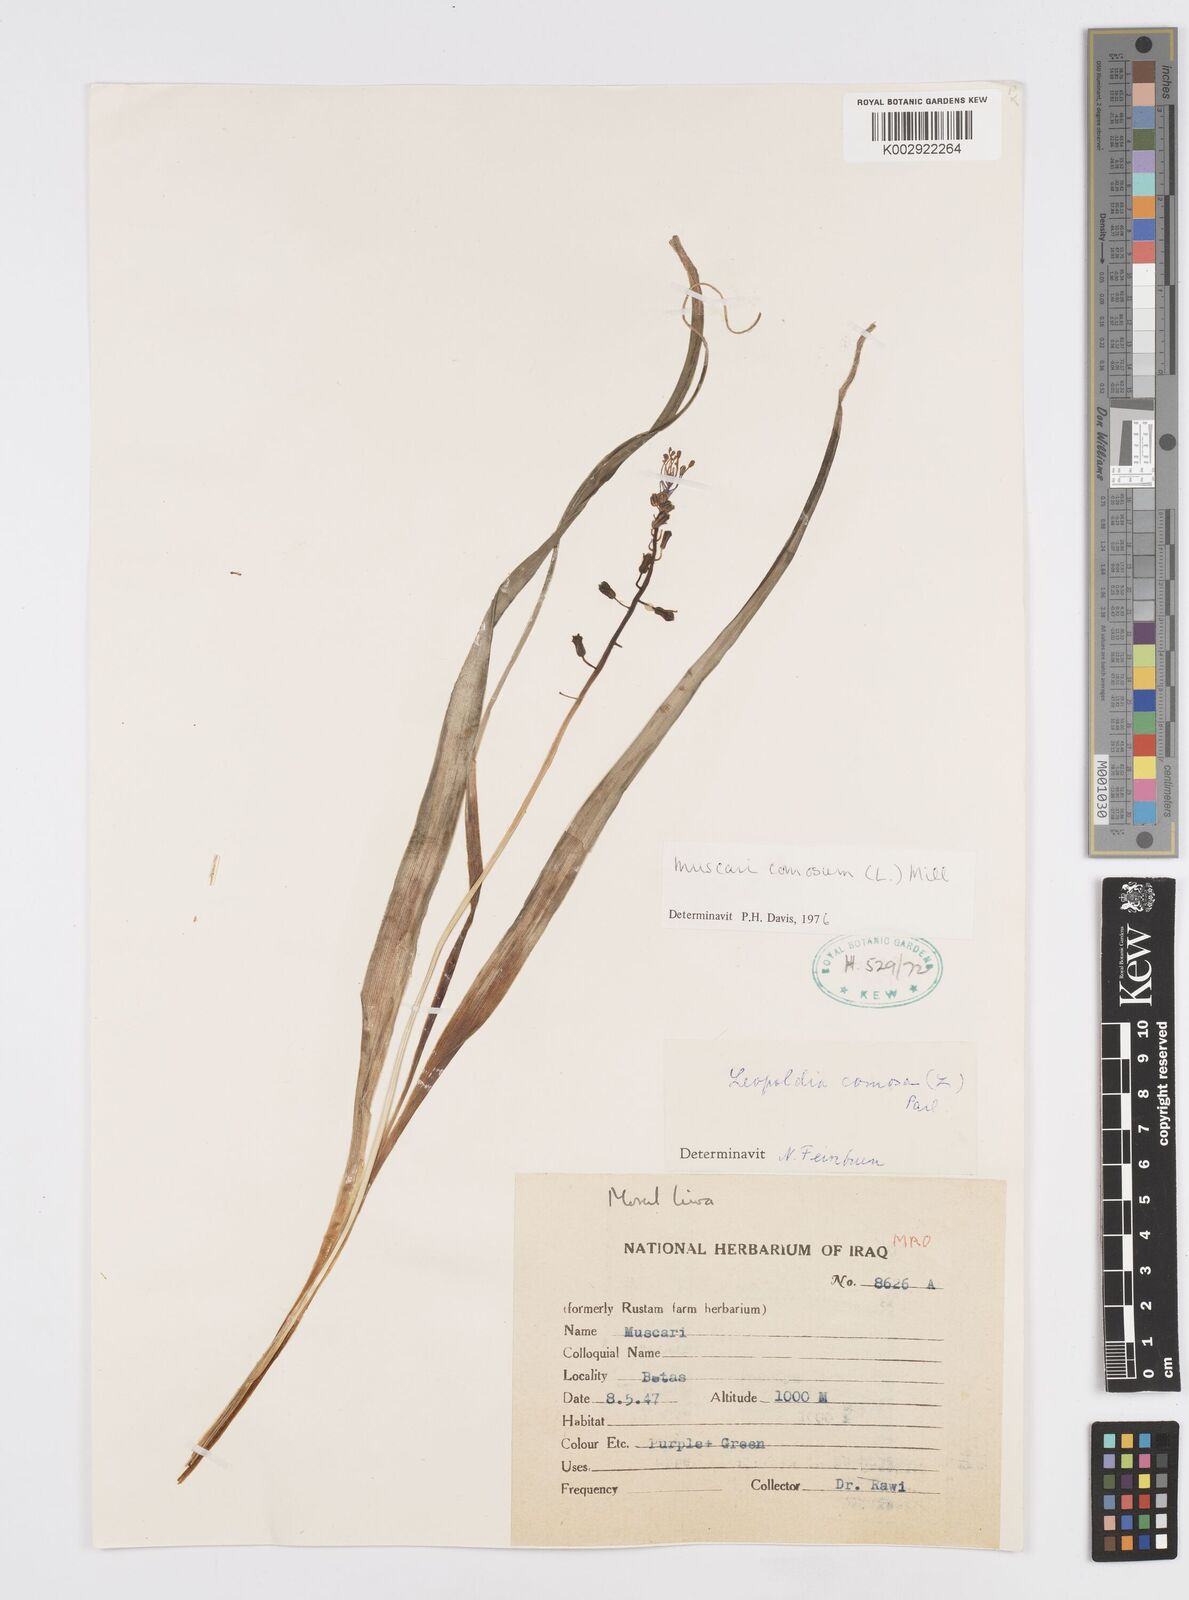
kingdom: Plantae
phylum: Tracheophyta
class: Liliopsida
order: Asparagales
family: Asparagaceae
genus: Muscari
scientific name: Muscari comosum
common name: Tassel hyacinth
